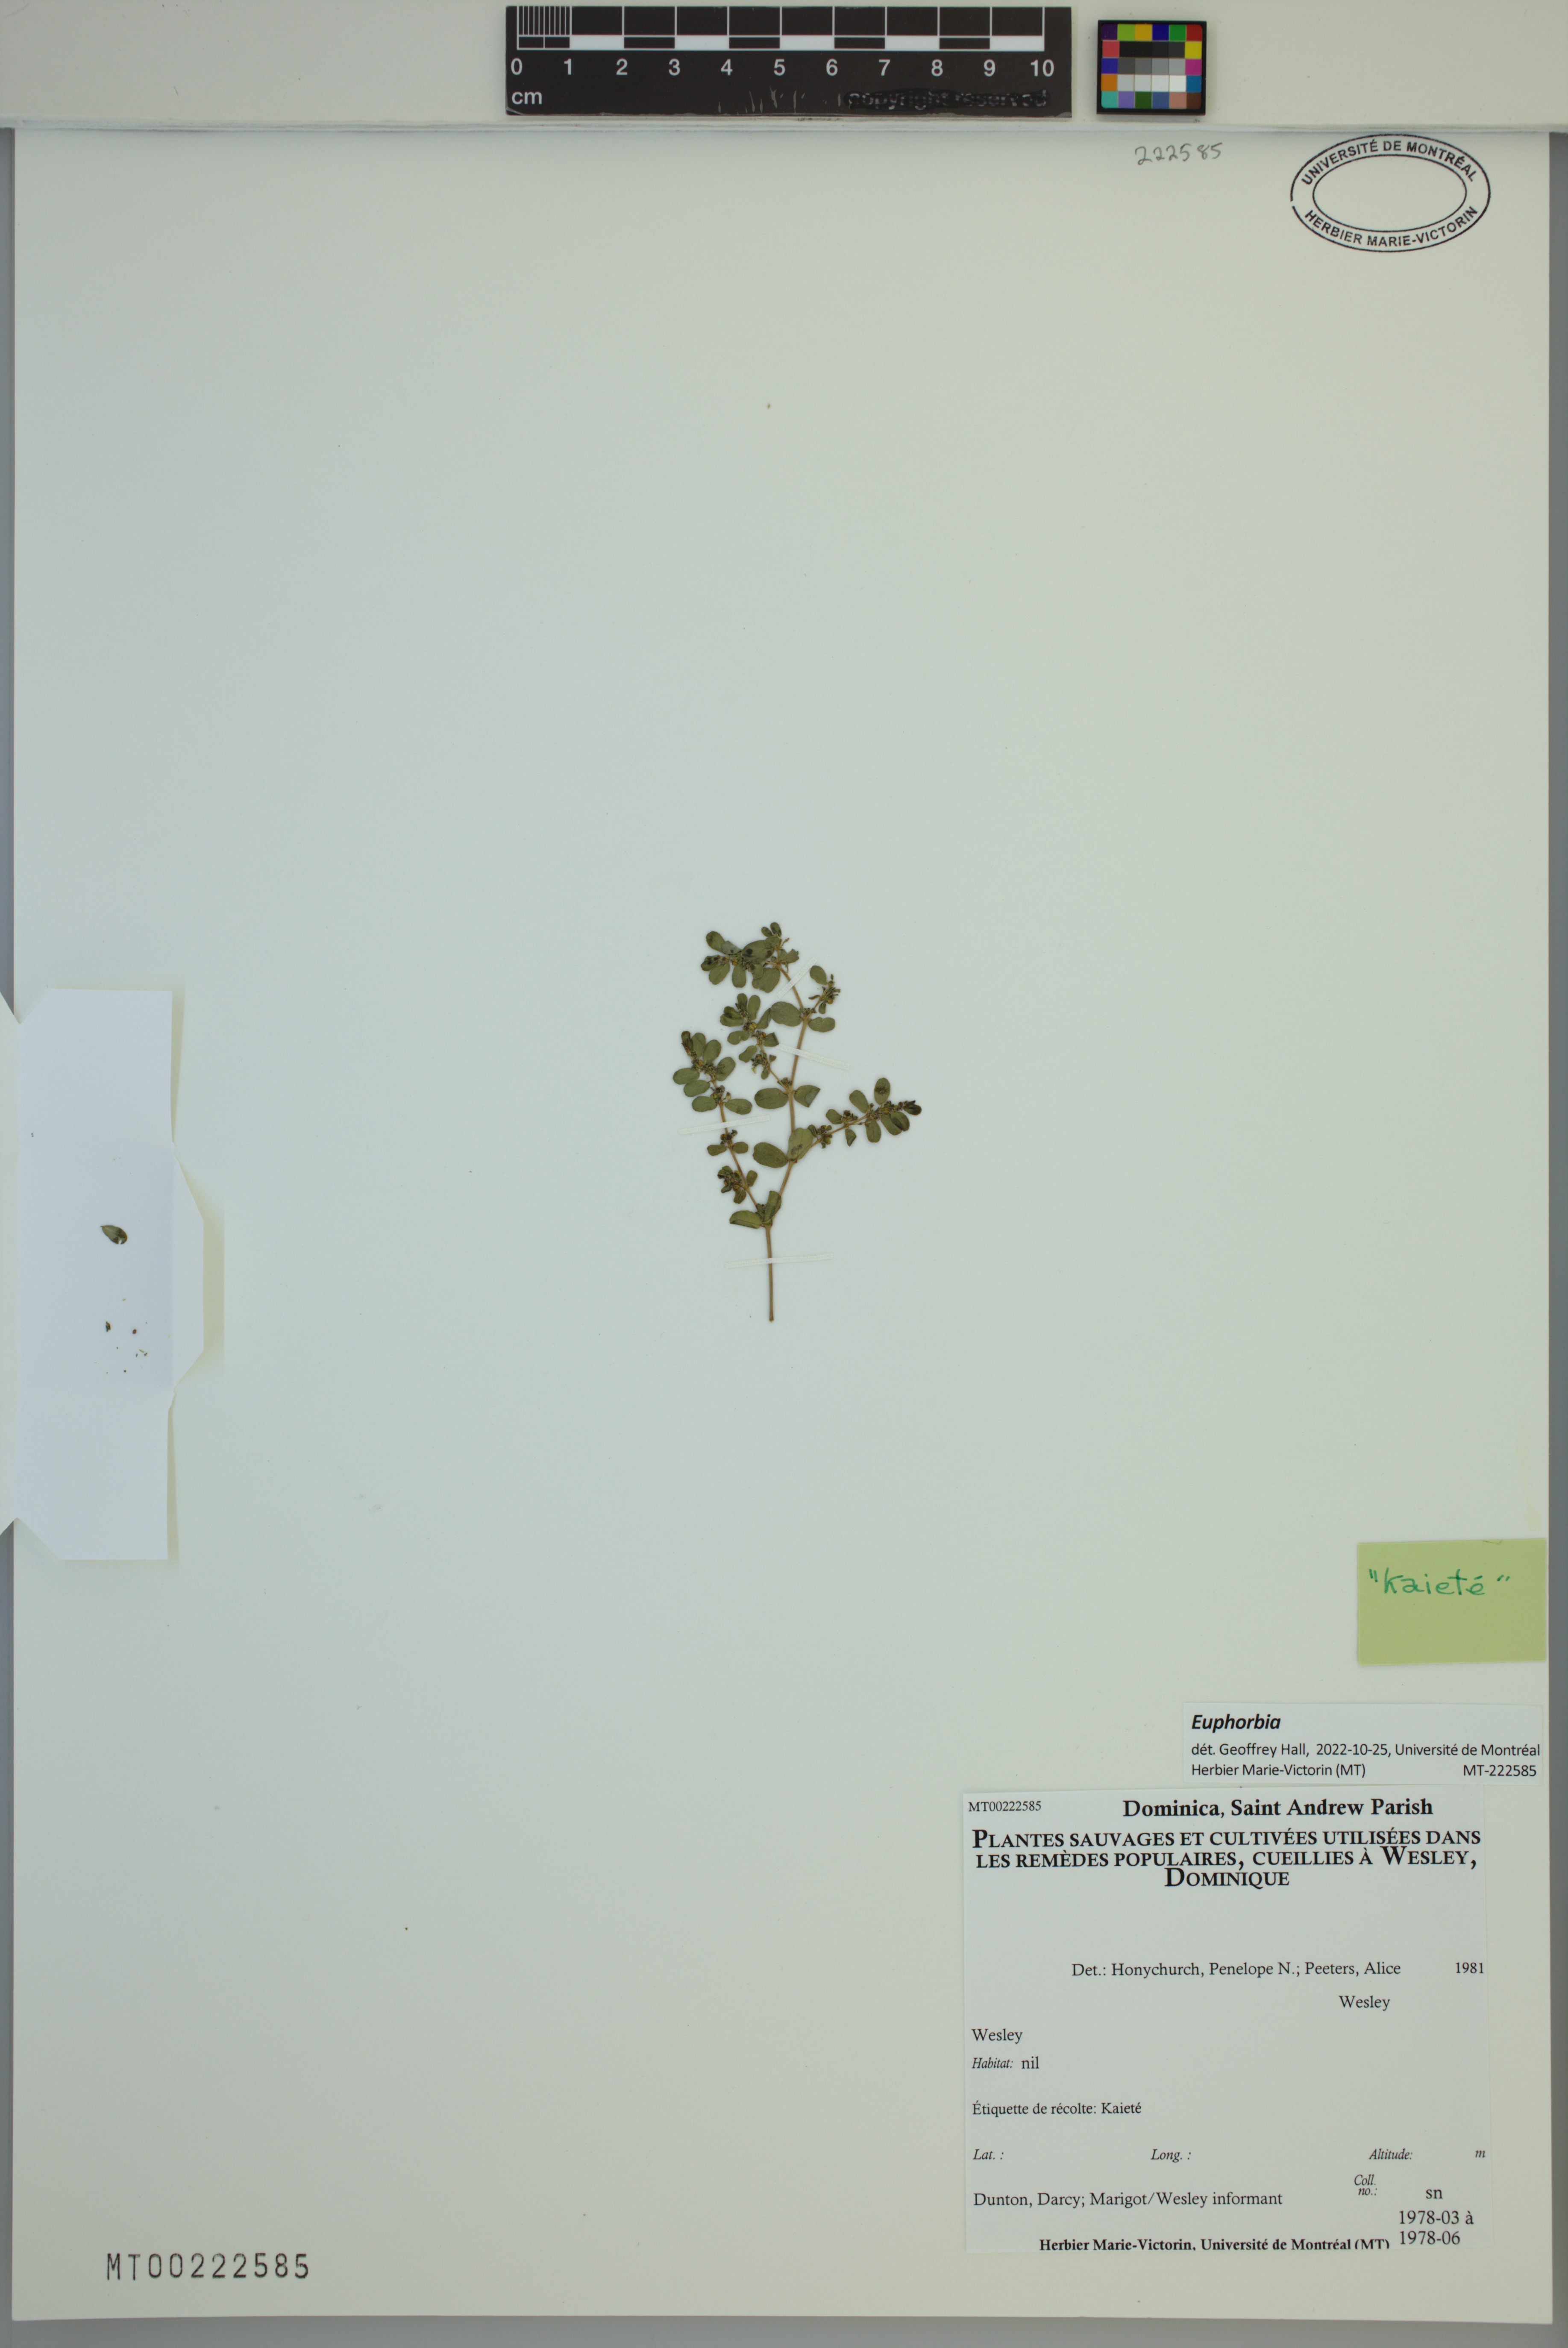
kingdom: Plantae
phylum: Tracheophyta
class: Magnoliopsida
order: Malpighiales
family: Euphorbiaceae
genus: Euphorbia
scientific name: Euphorbia
